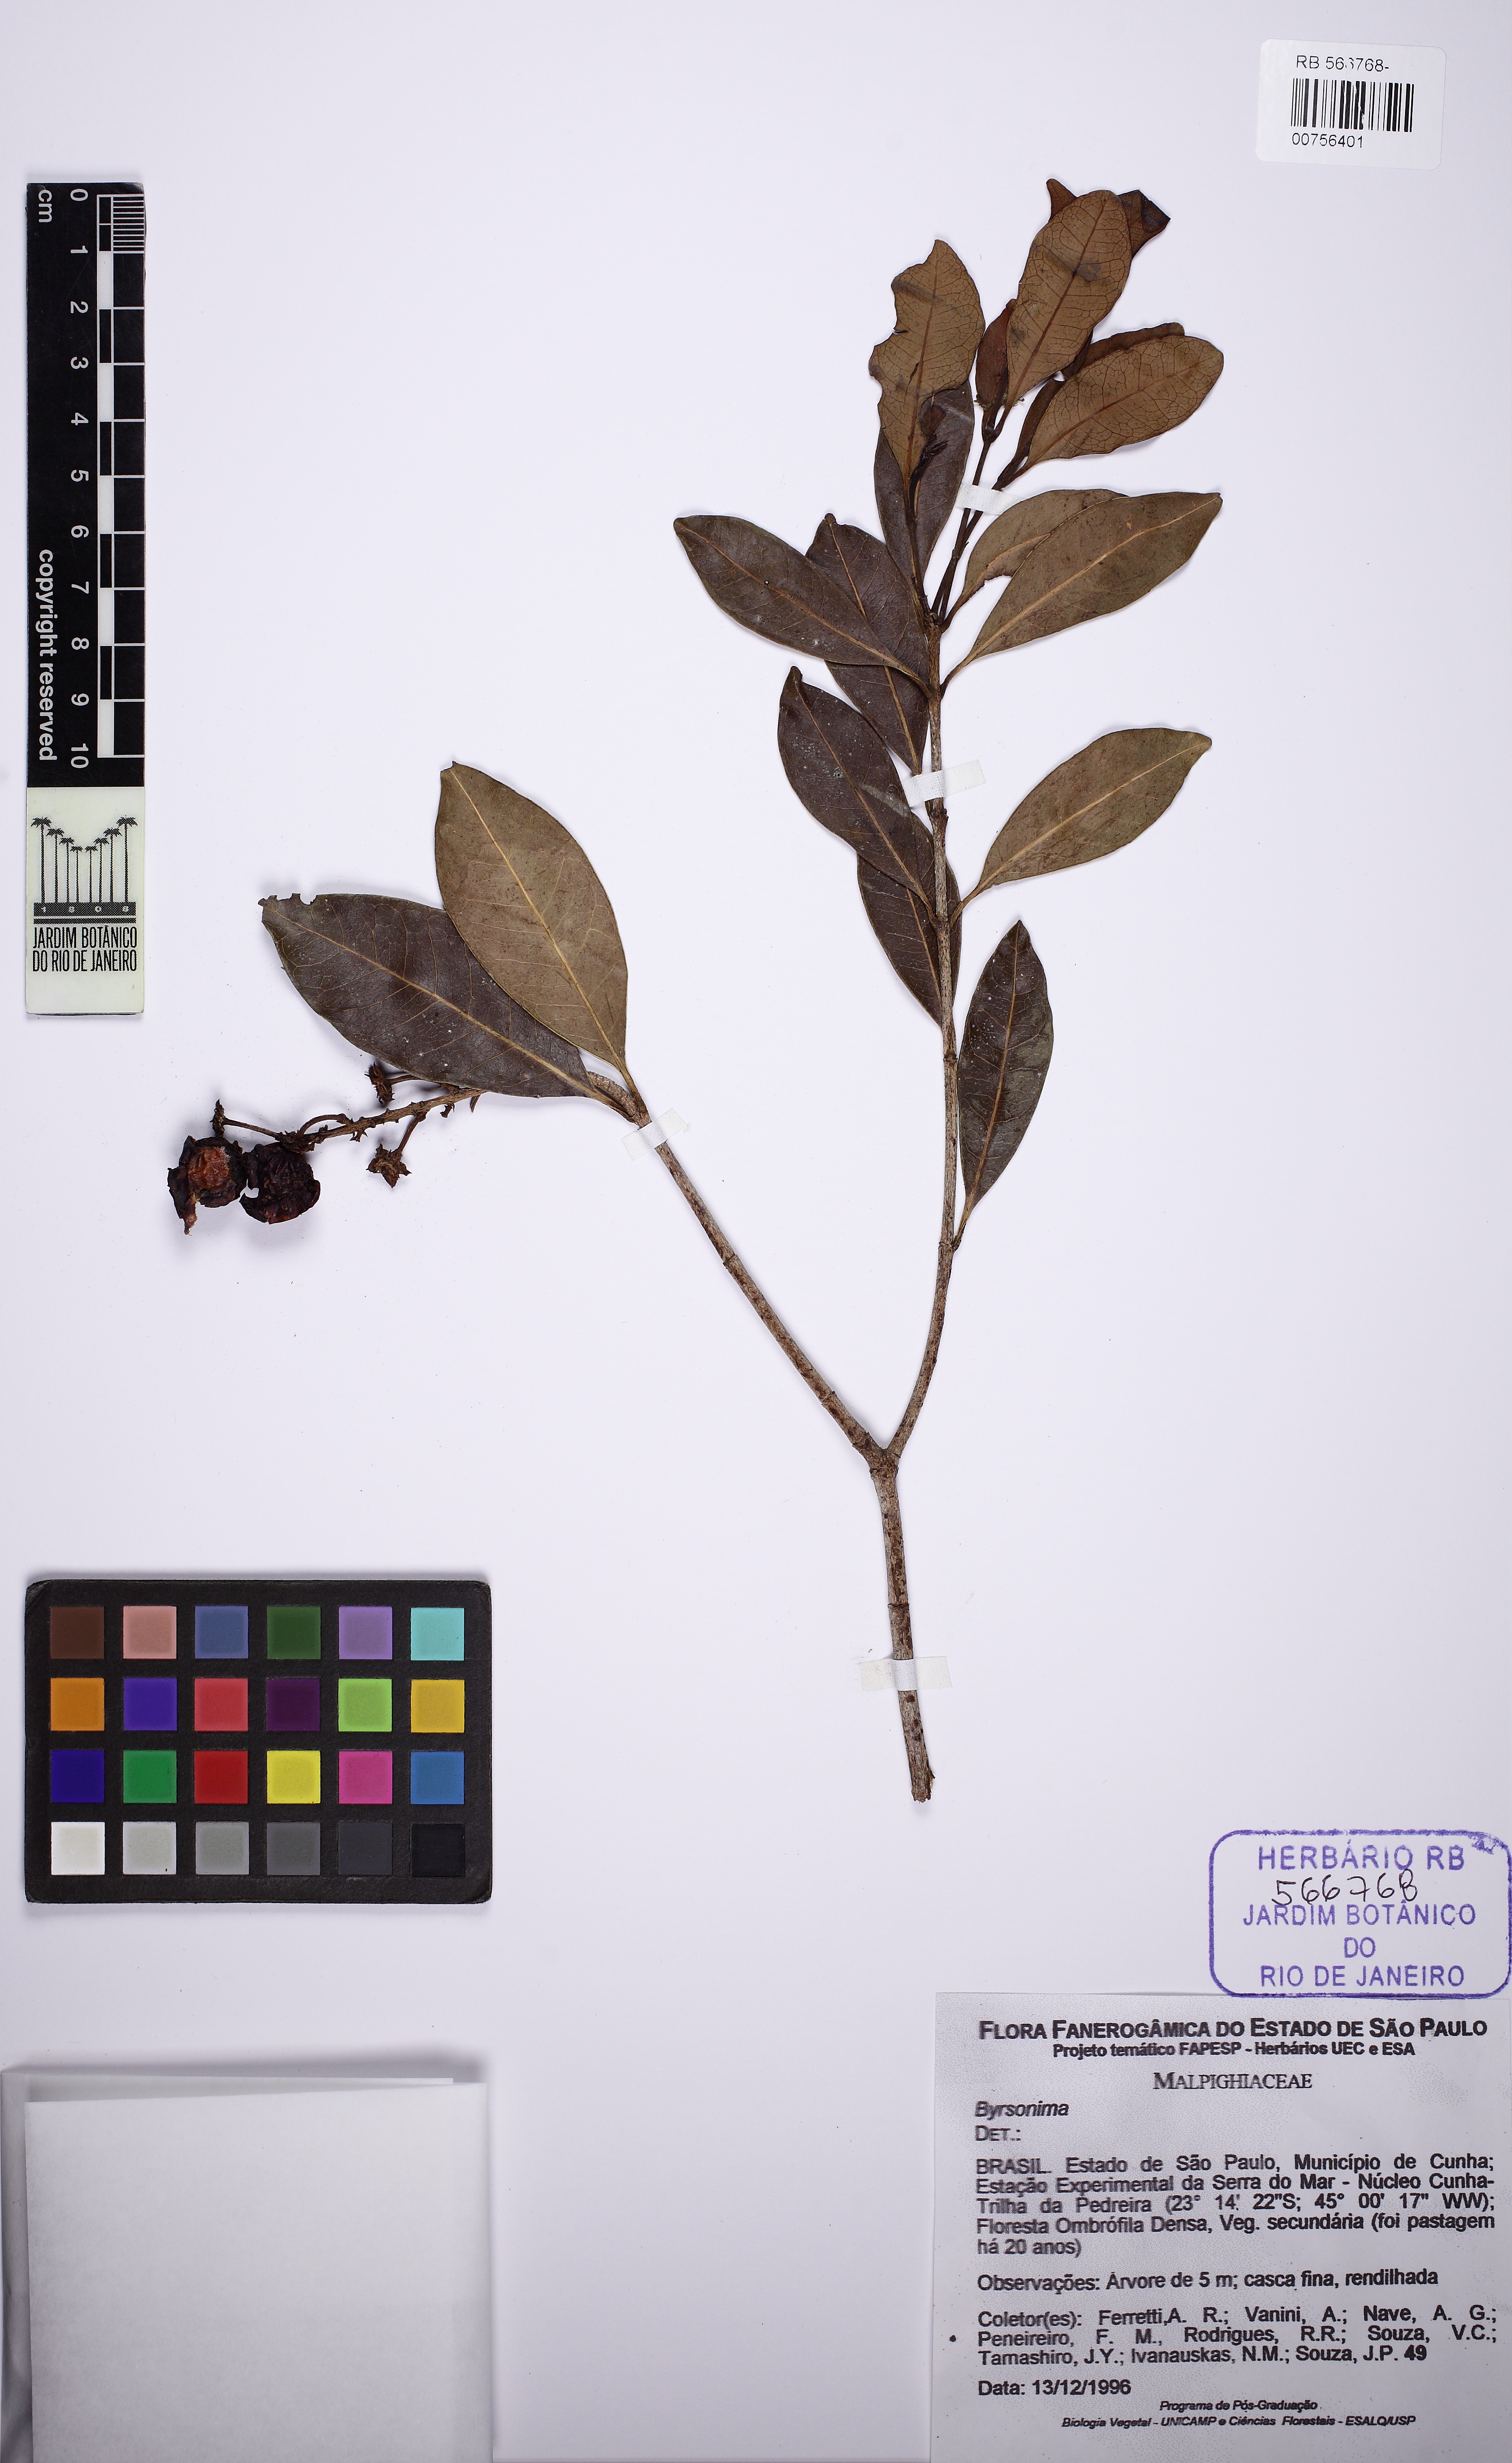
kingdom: Plantae
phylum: Tracheophyta
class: Magnoliopsida
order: Malpighiales
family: Malpighiaceae
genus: Byrsonima
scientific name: Byrsonima
